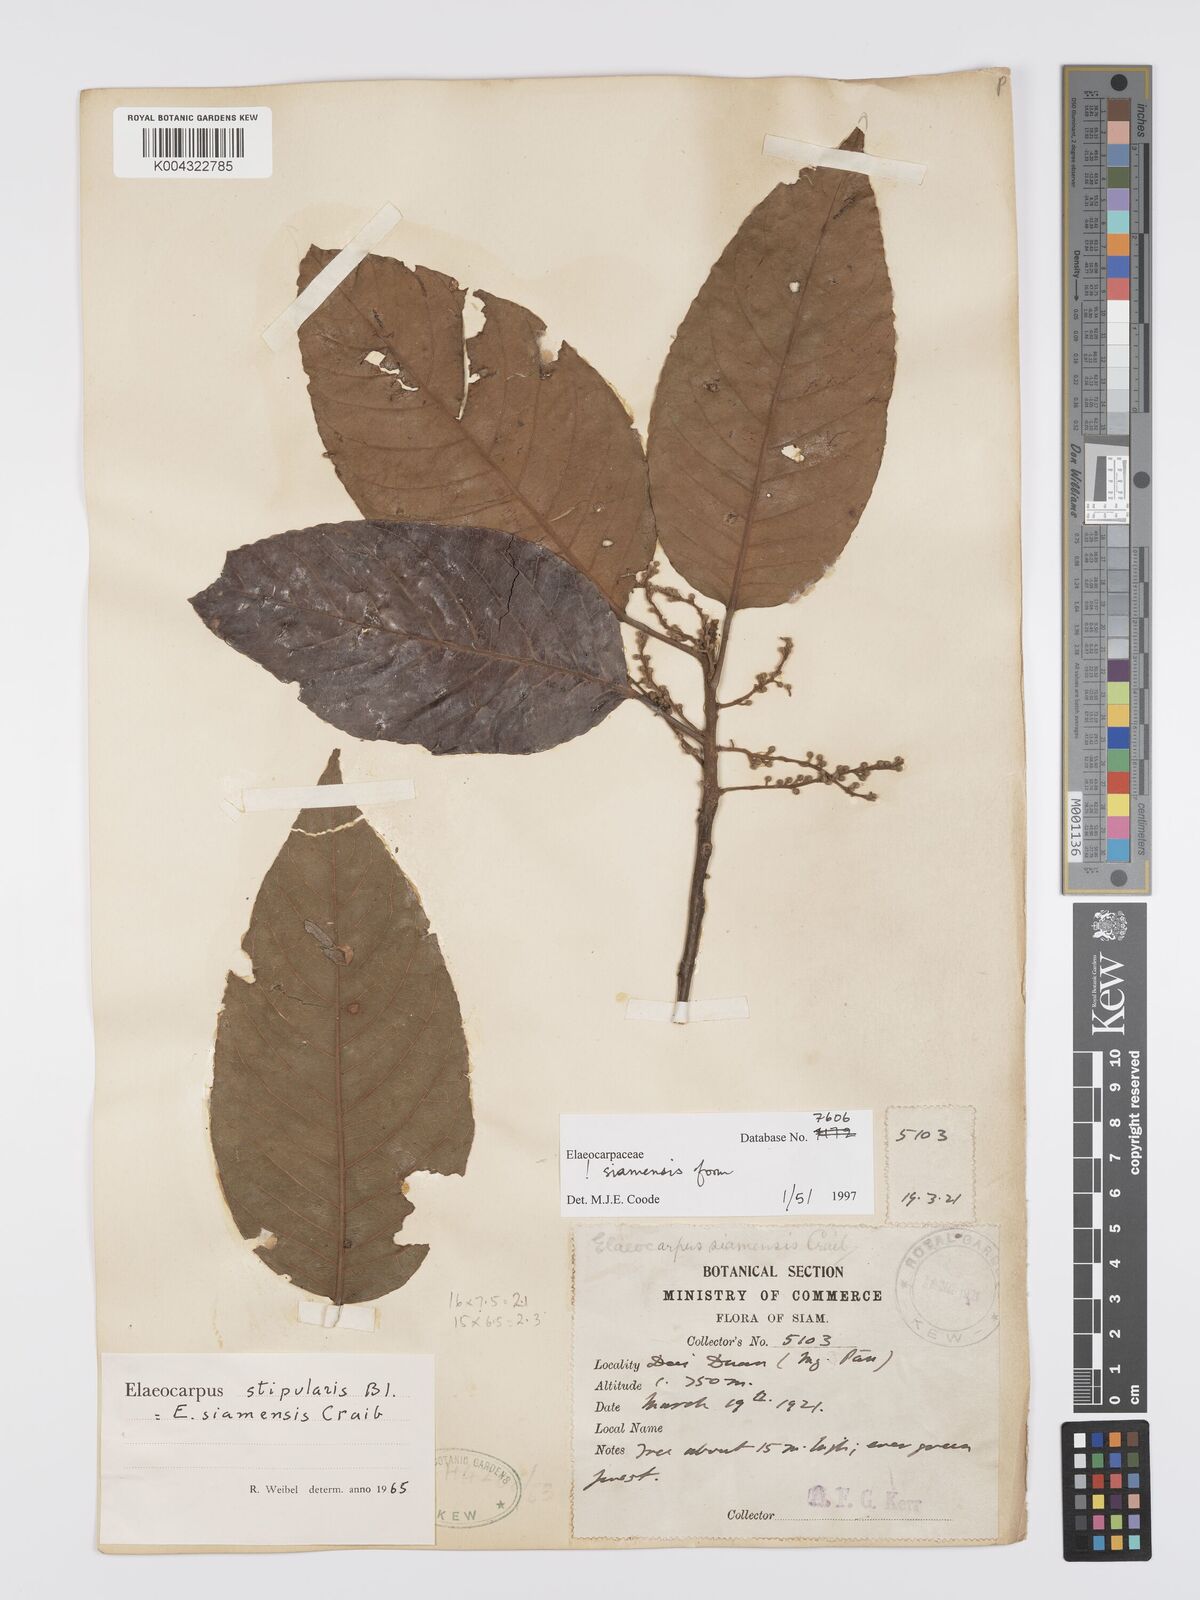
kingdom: Plantae
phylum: Tracheophyta
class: Magnoliopsida
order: Oxalidales
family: Elaeocarpaceae
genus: Elaeocarpus
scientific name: Elaeocarpus stipularis
